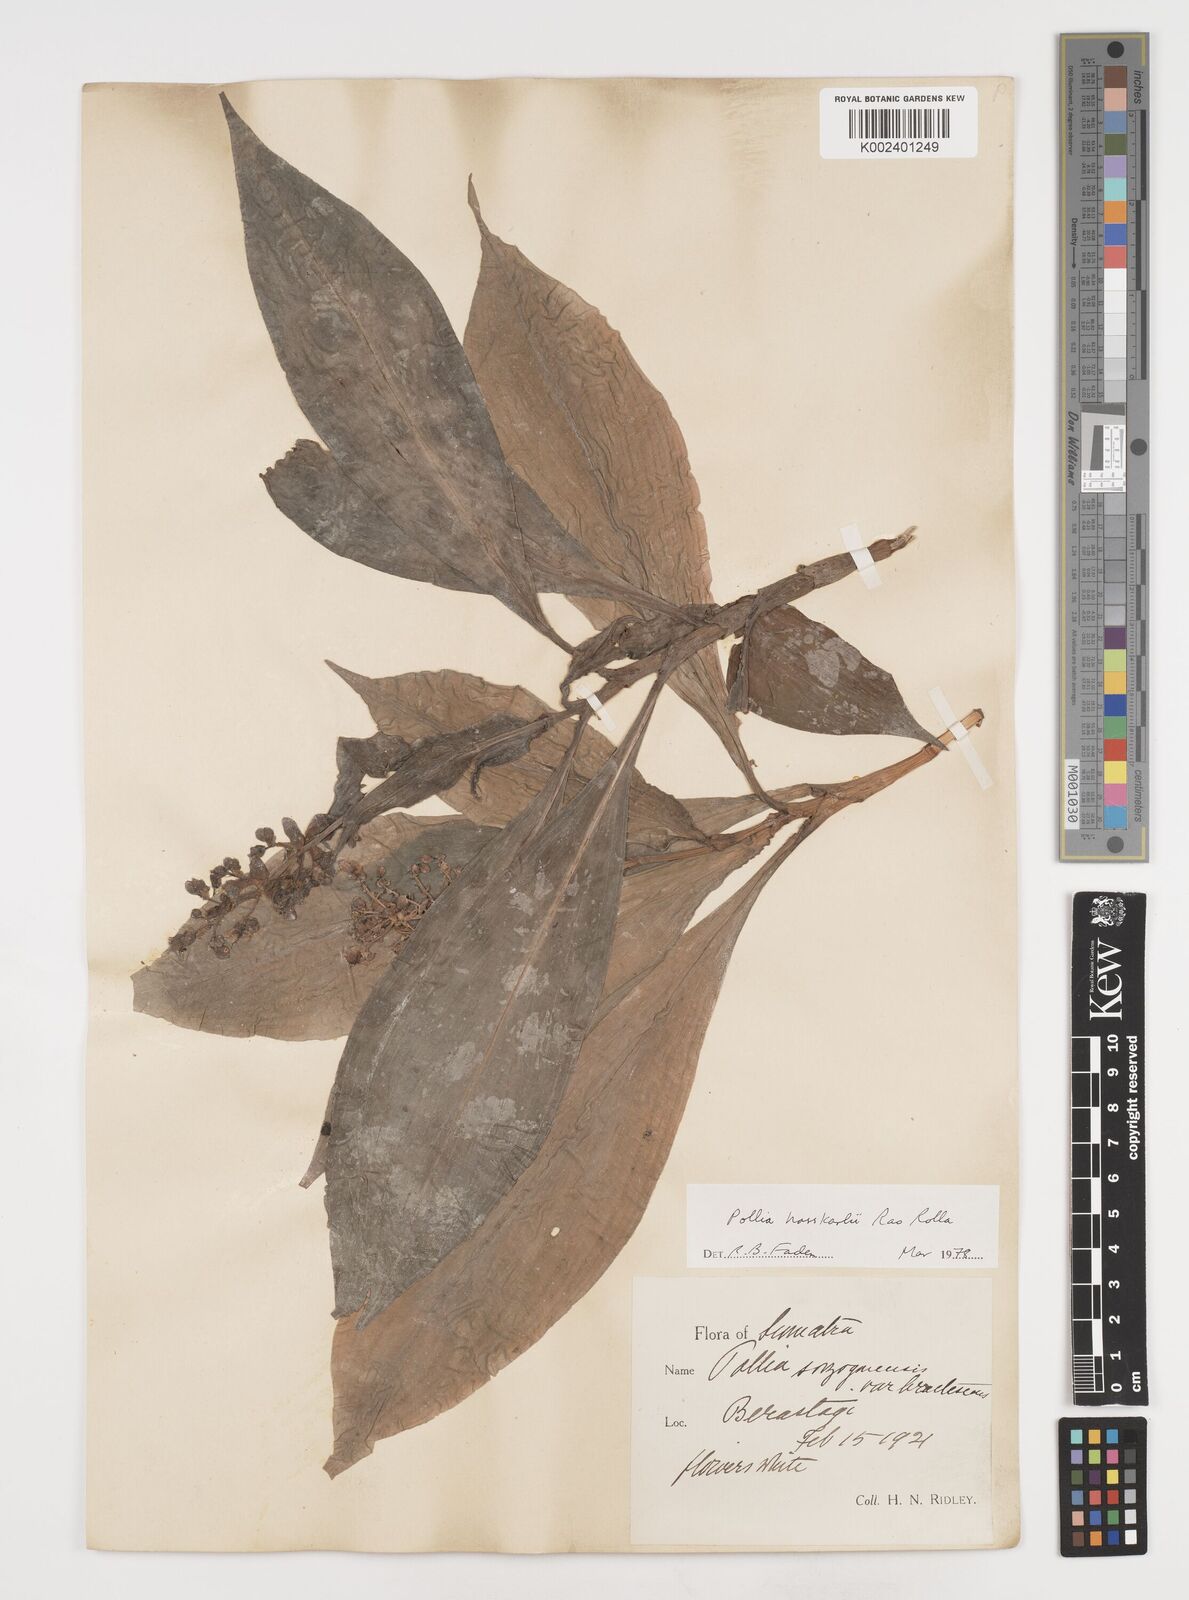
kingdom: Plantae
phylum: Tracheophyta
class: Liliopsida
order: Commelinales
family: Commelinaceae
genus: Pollia
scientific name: Pollia hasskarlii
